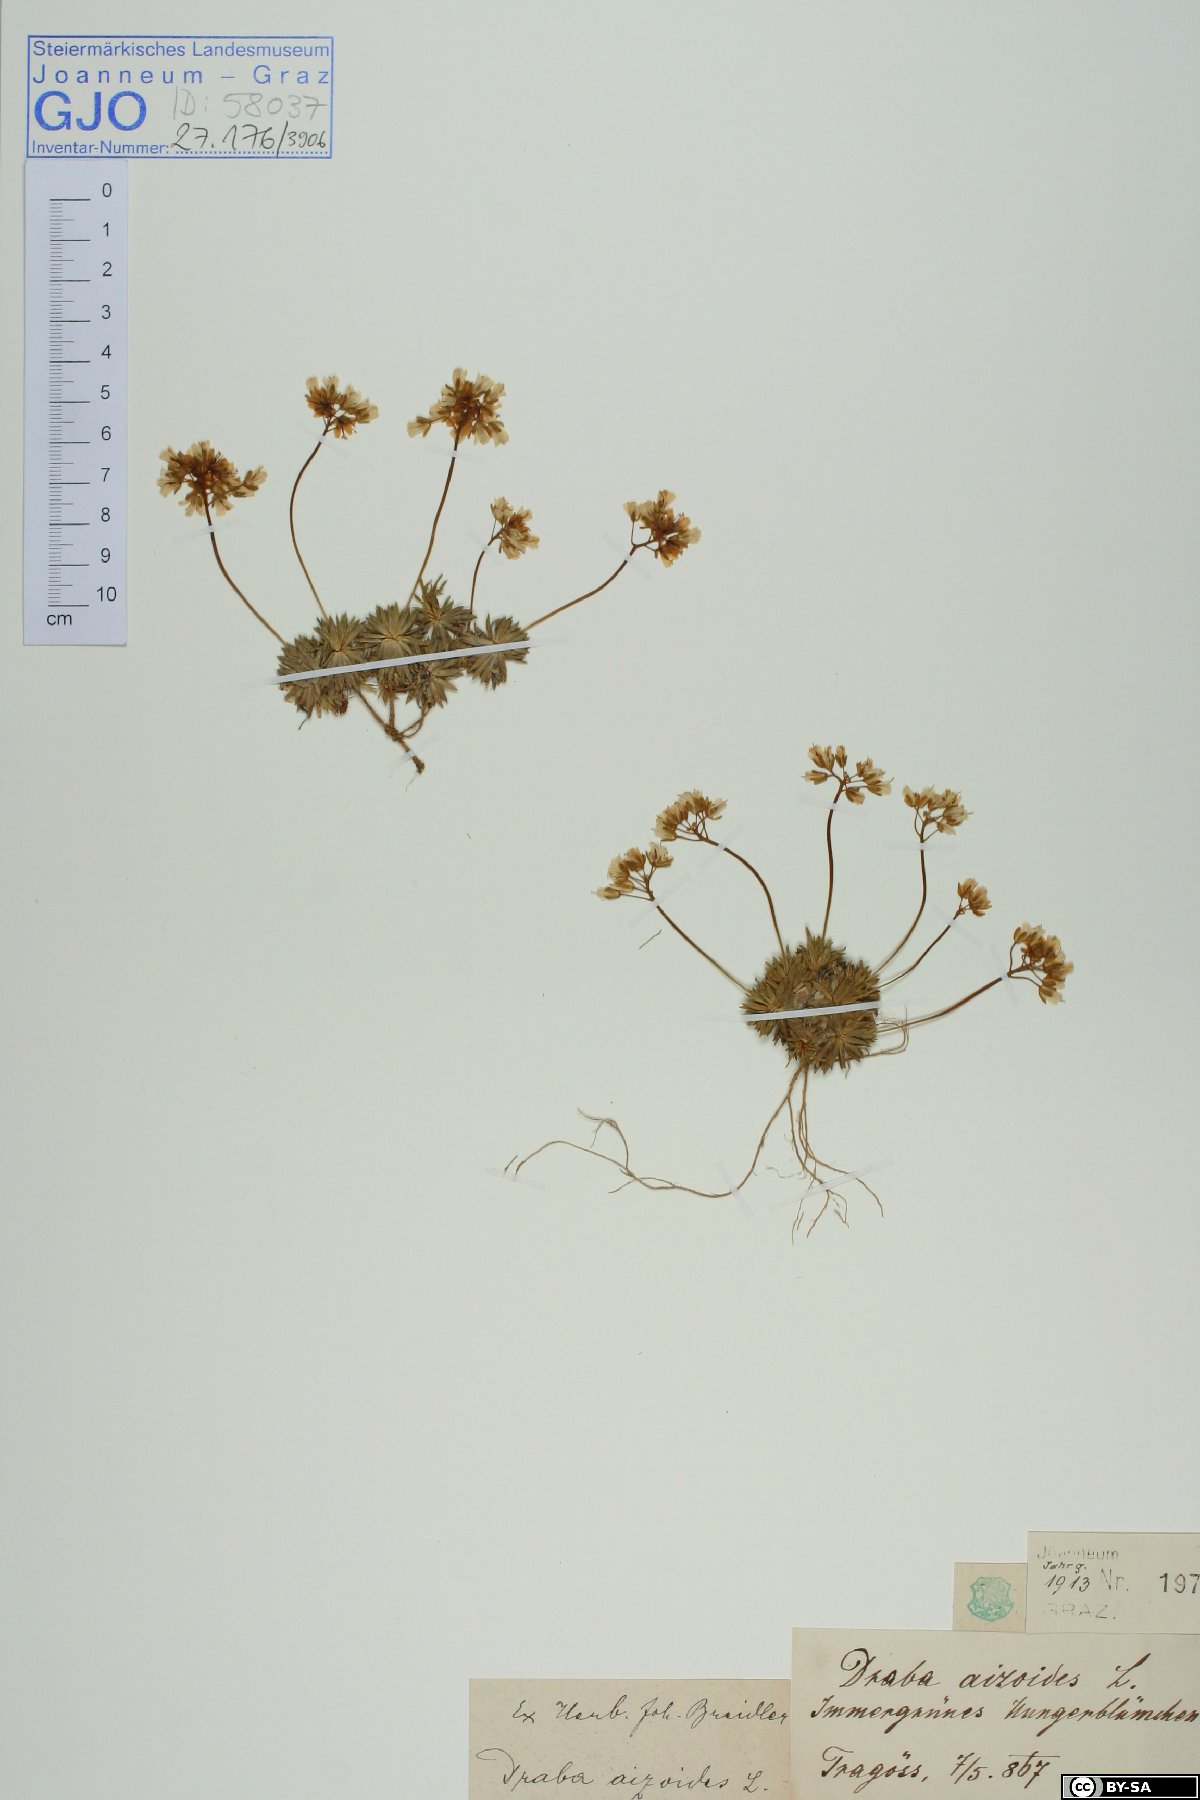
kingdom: Plantae
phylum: Tracheophyta
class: Magnoliopsida
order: Brassicales
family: Brassicaceae
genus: Draba
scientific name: Draba aizoides
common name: Yellow whitlowgrass
